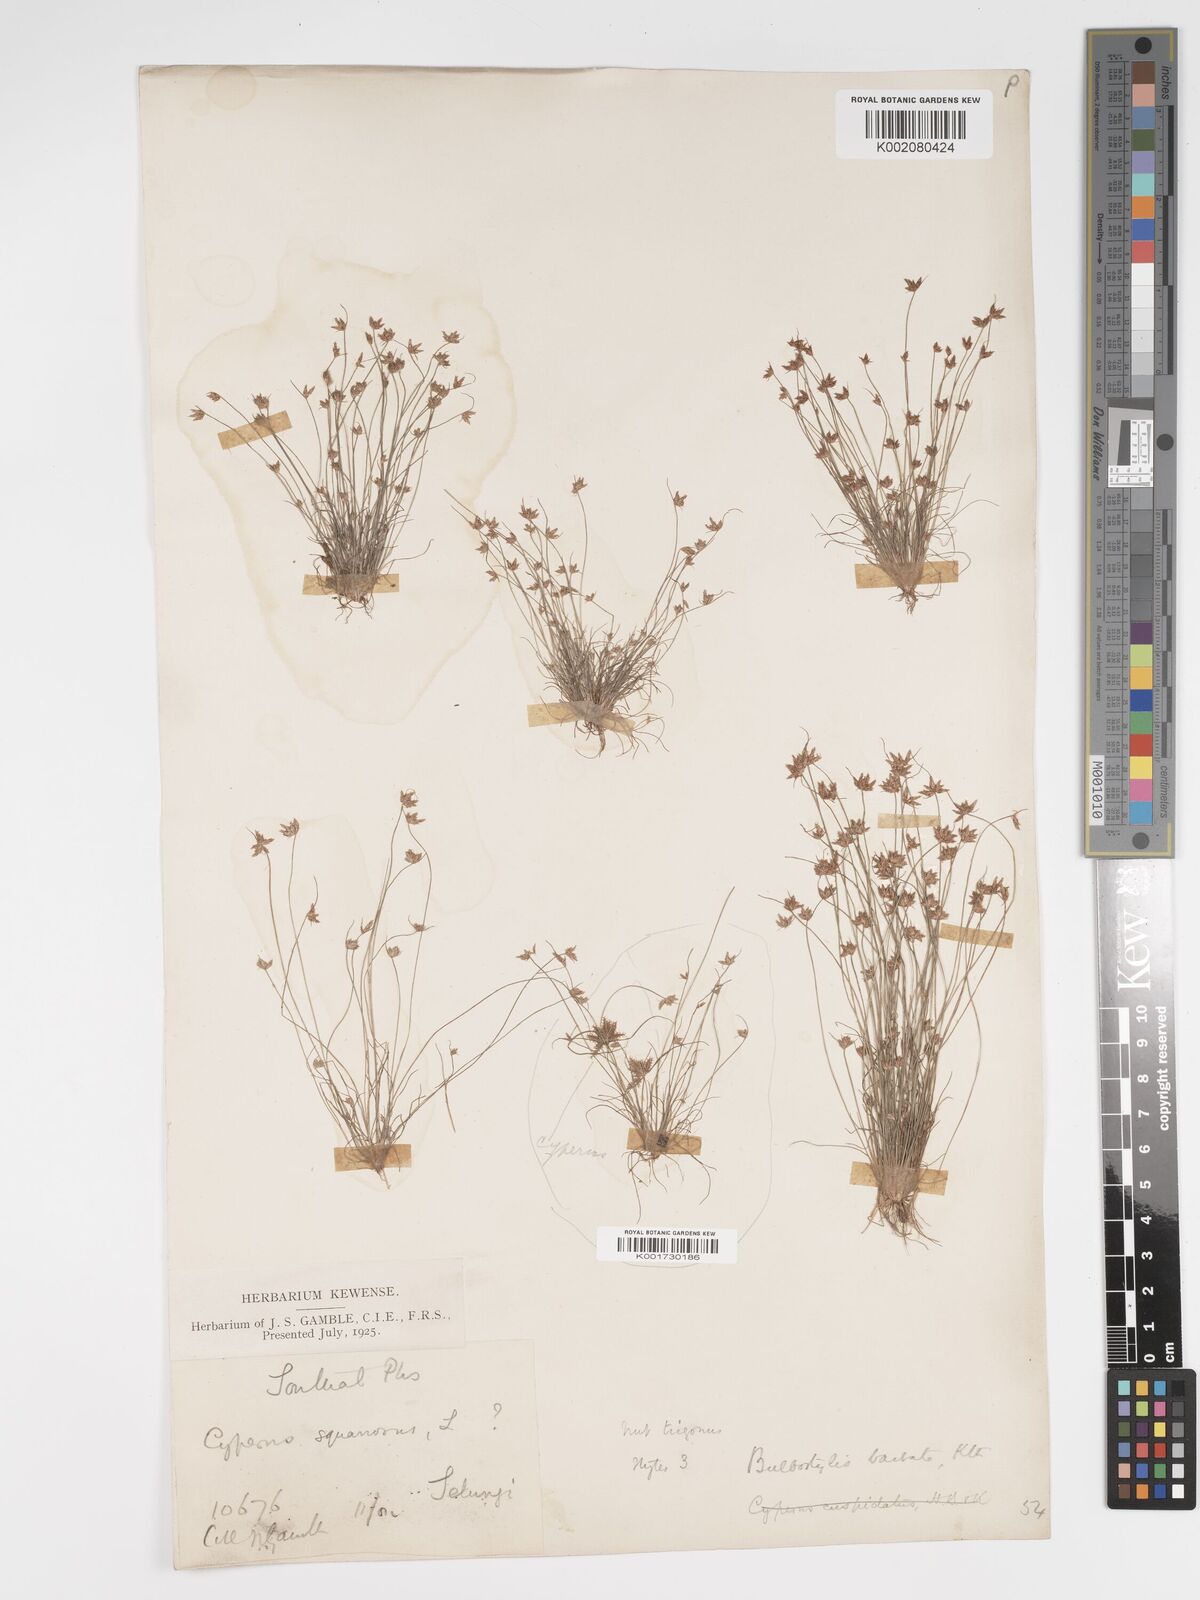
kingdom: Plantae
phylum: Tracheophyta
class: Liliopsida
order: Poales
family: Cyperaceae
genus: Bulbostylis
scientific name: Bulbostylis barbata
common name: Watergrass
